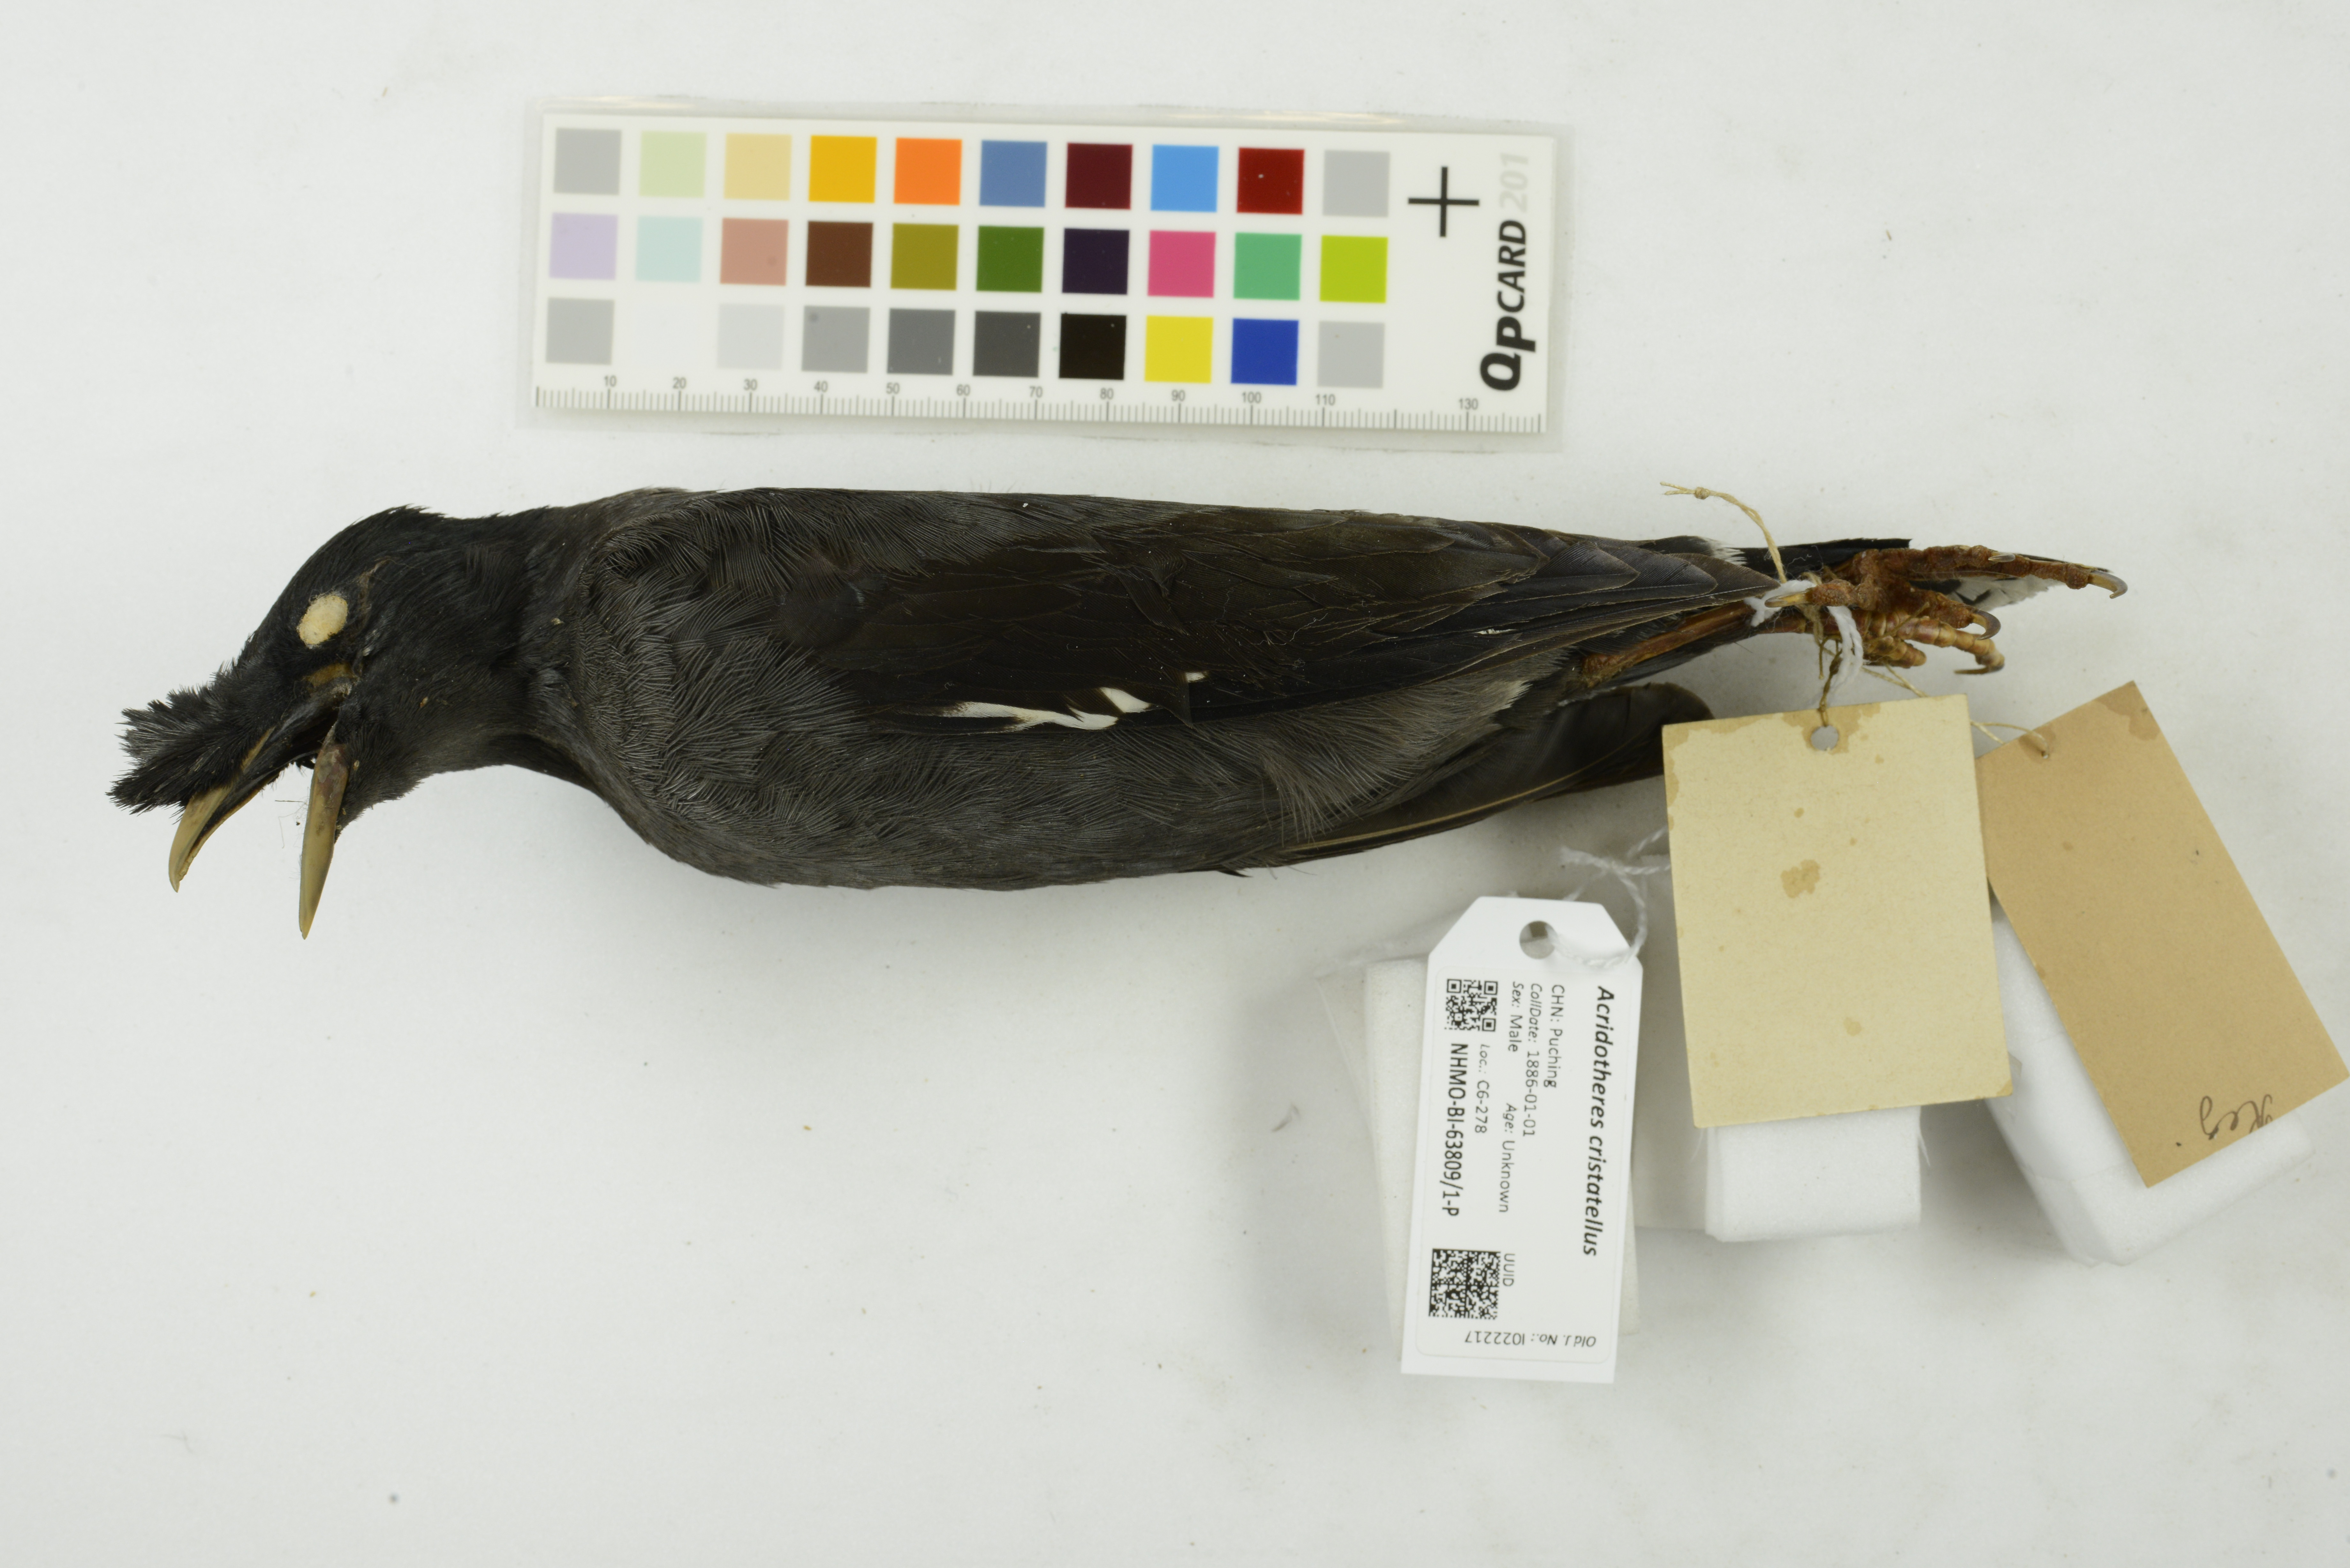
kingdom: Animalia
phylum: Chordata
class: Aves
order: Passeriformes
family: Sturnidae
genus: Acridotheres
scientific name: Acridotheres cristatellus
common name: Crested myna
